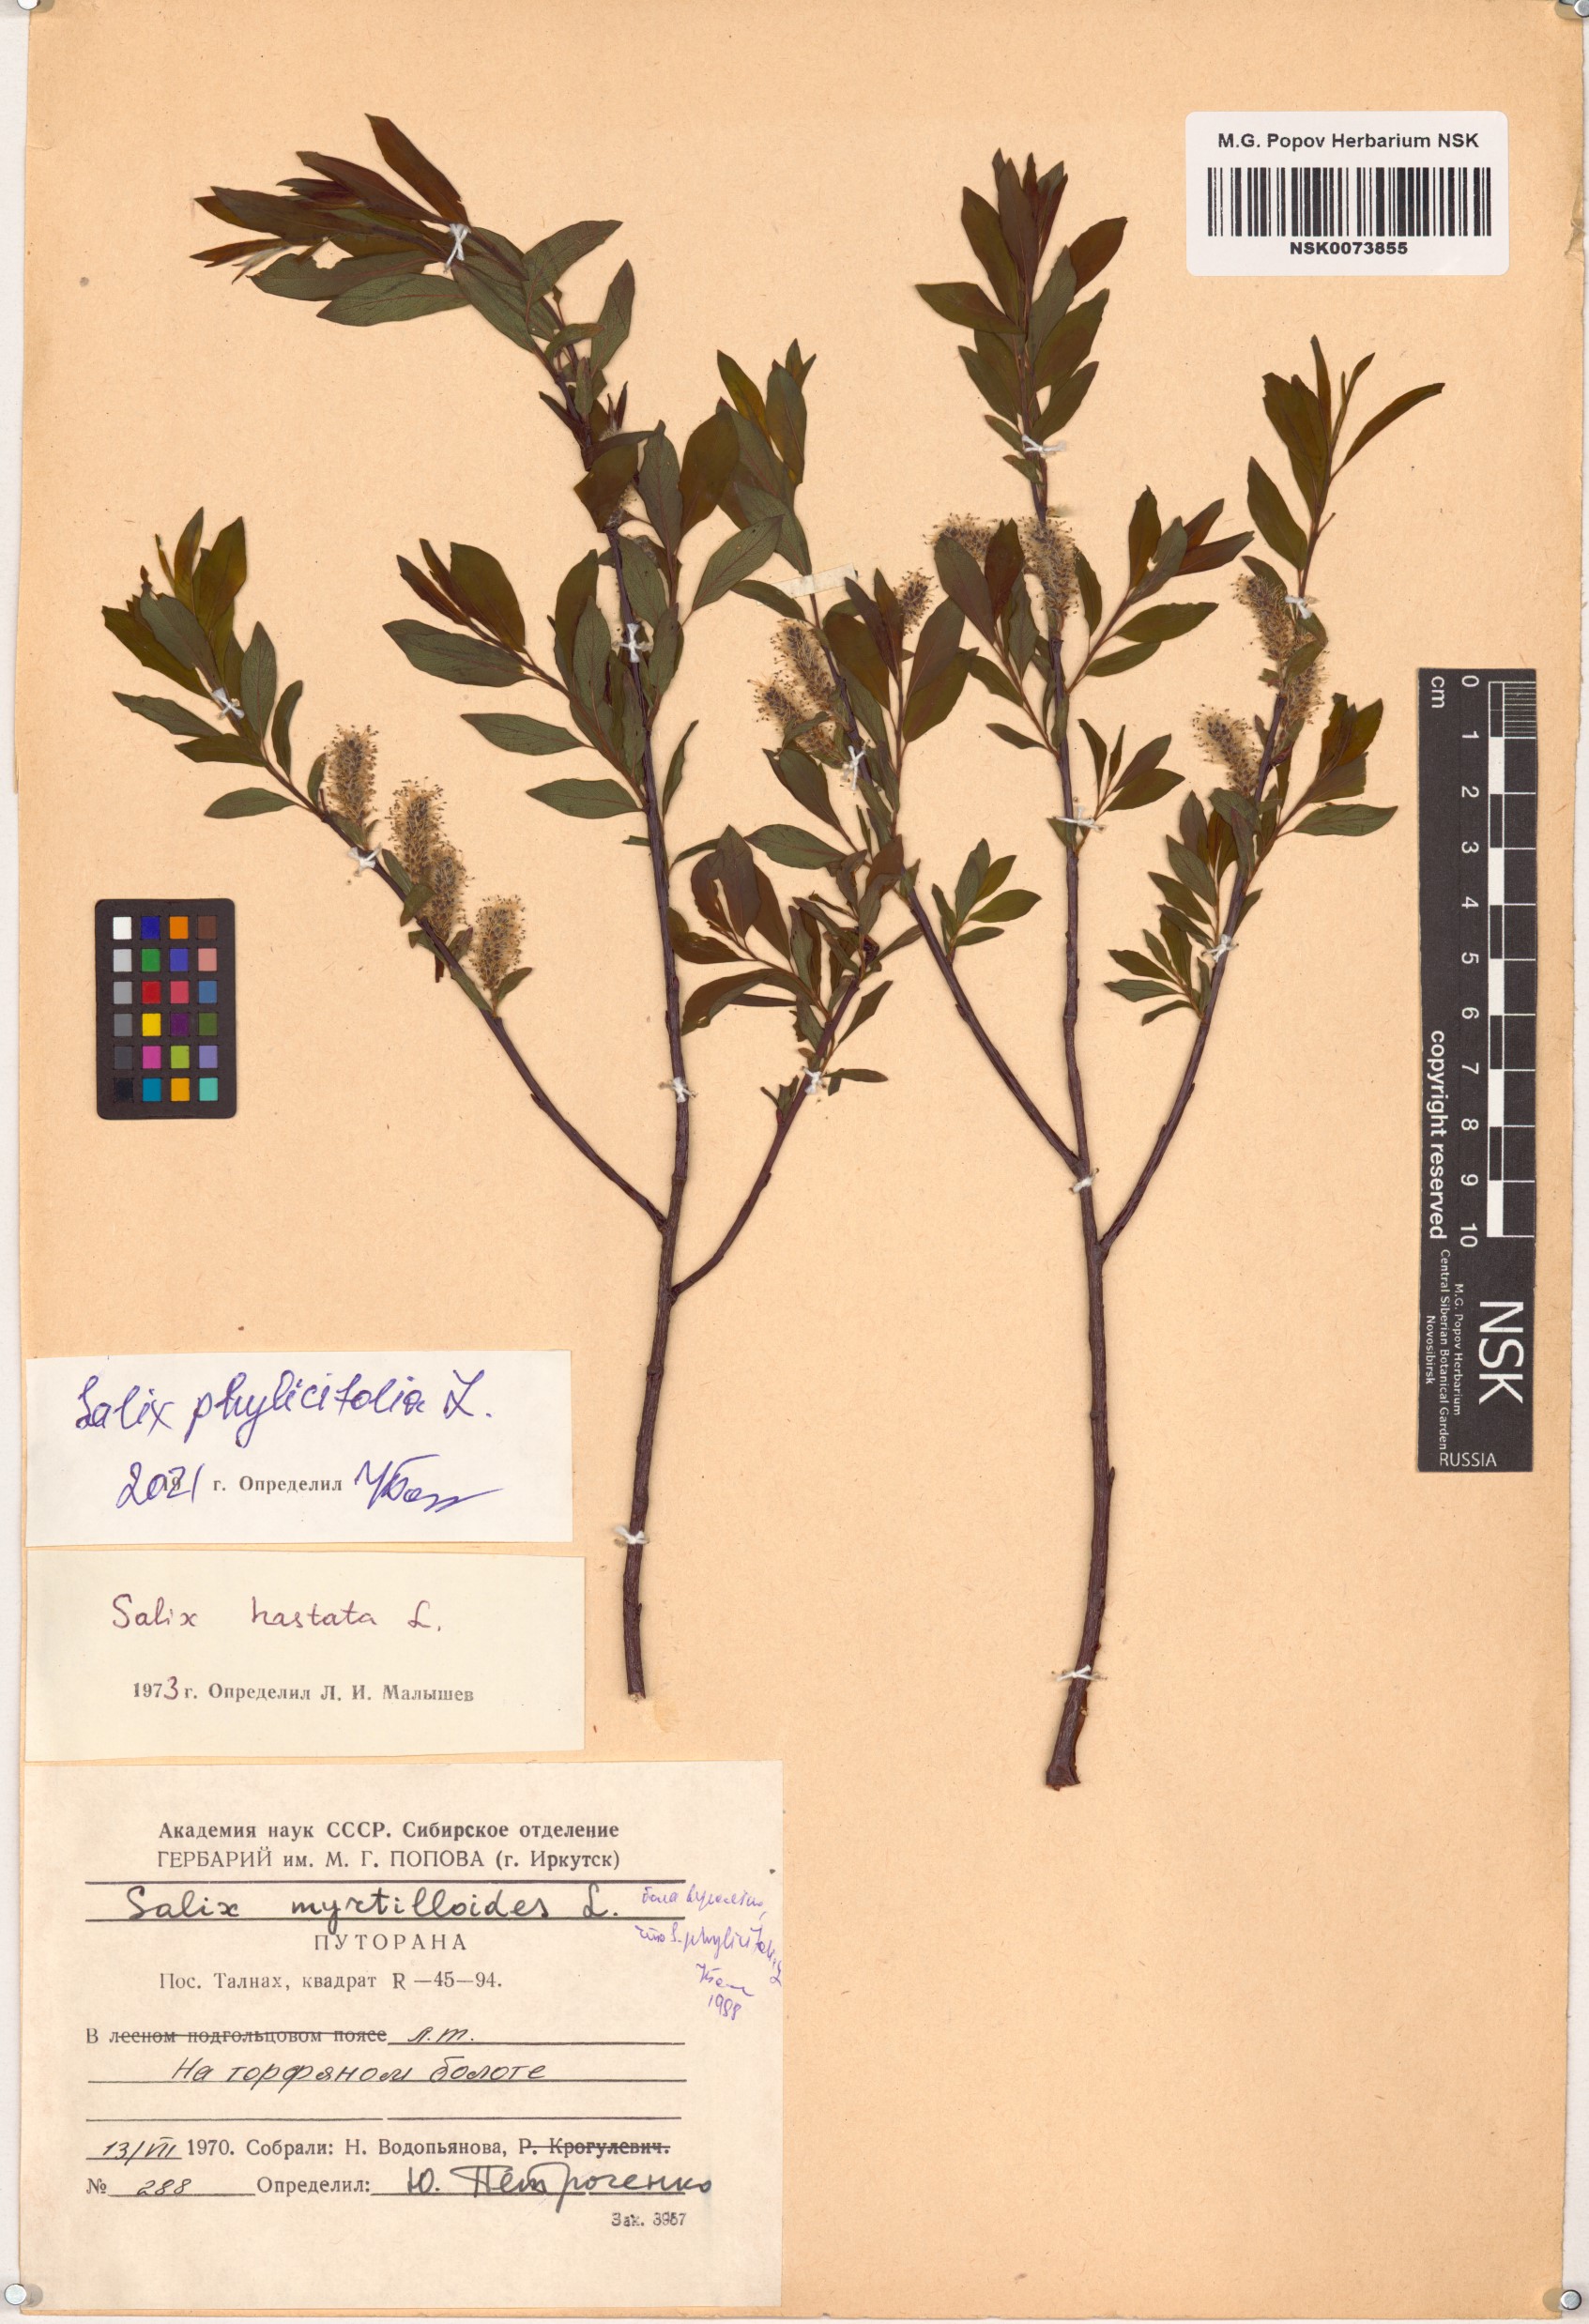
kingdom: Plantae
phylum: Tracheophyta
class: Magnoliopsida
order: Malpighiales
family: Salicaceae
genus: Salix
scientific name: Salix phylicifolia
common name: Tea-leaved willow
